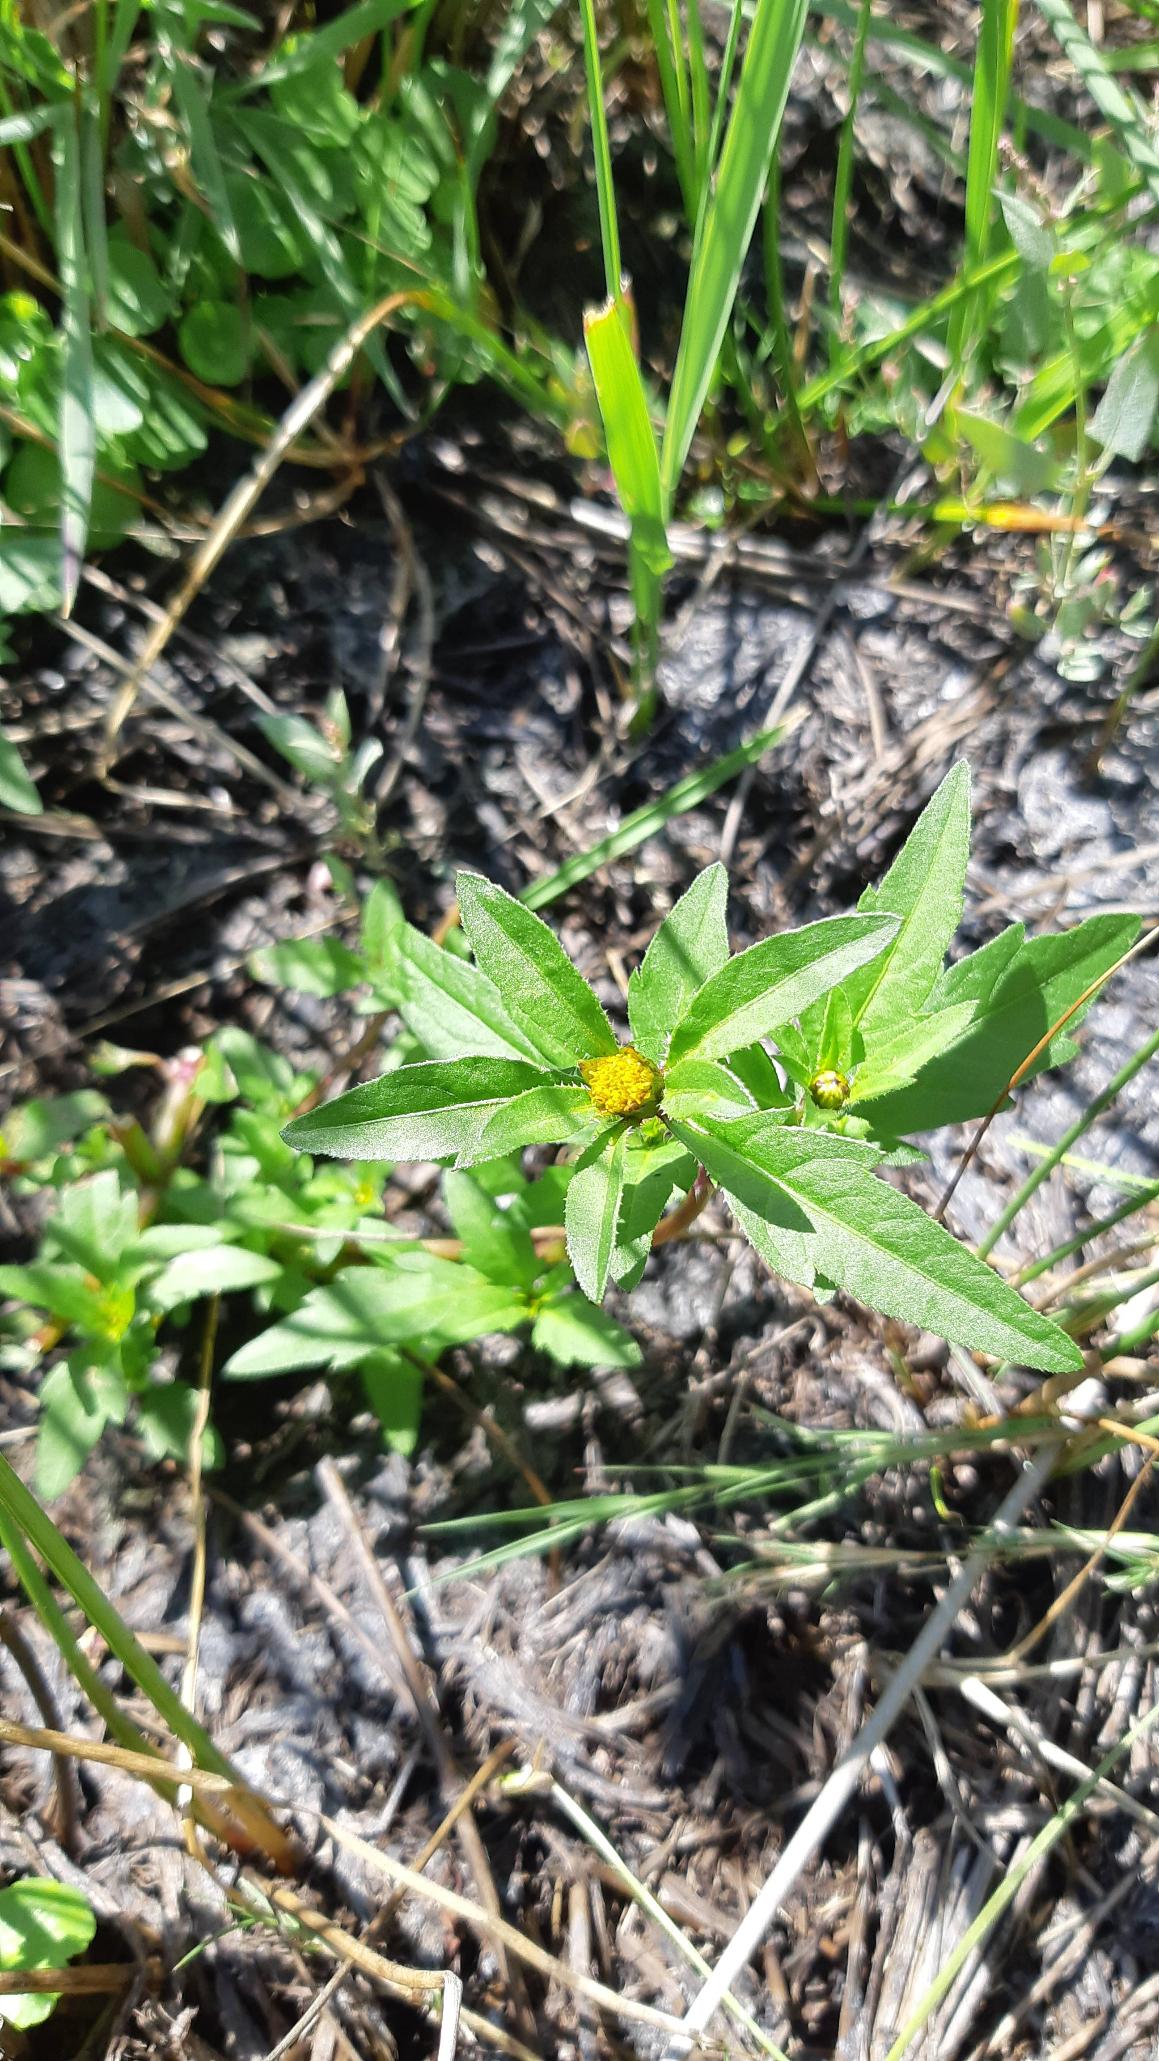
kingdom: Plantae
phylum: Tracheophyta
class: Magnoliopsida
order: Asterales
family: Asteraceae
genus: Bidens
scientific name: Bidens tripartita
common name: Fliget brøndsel
